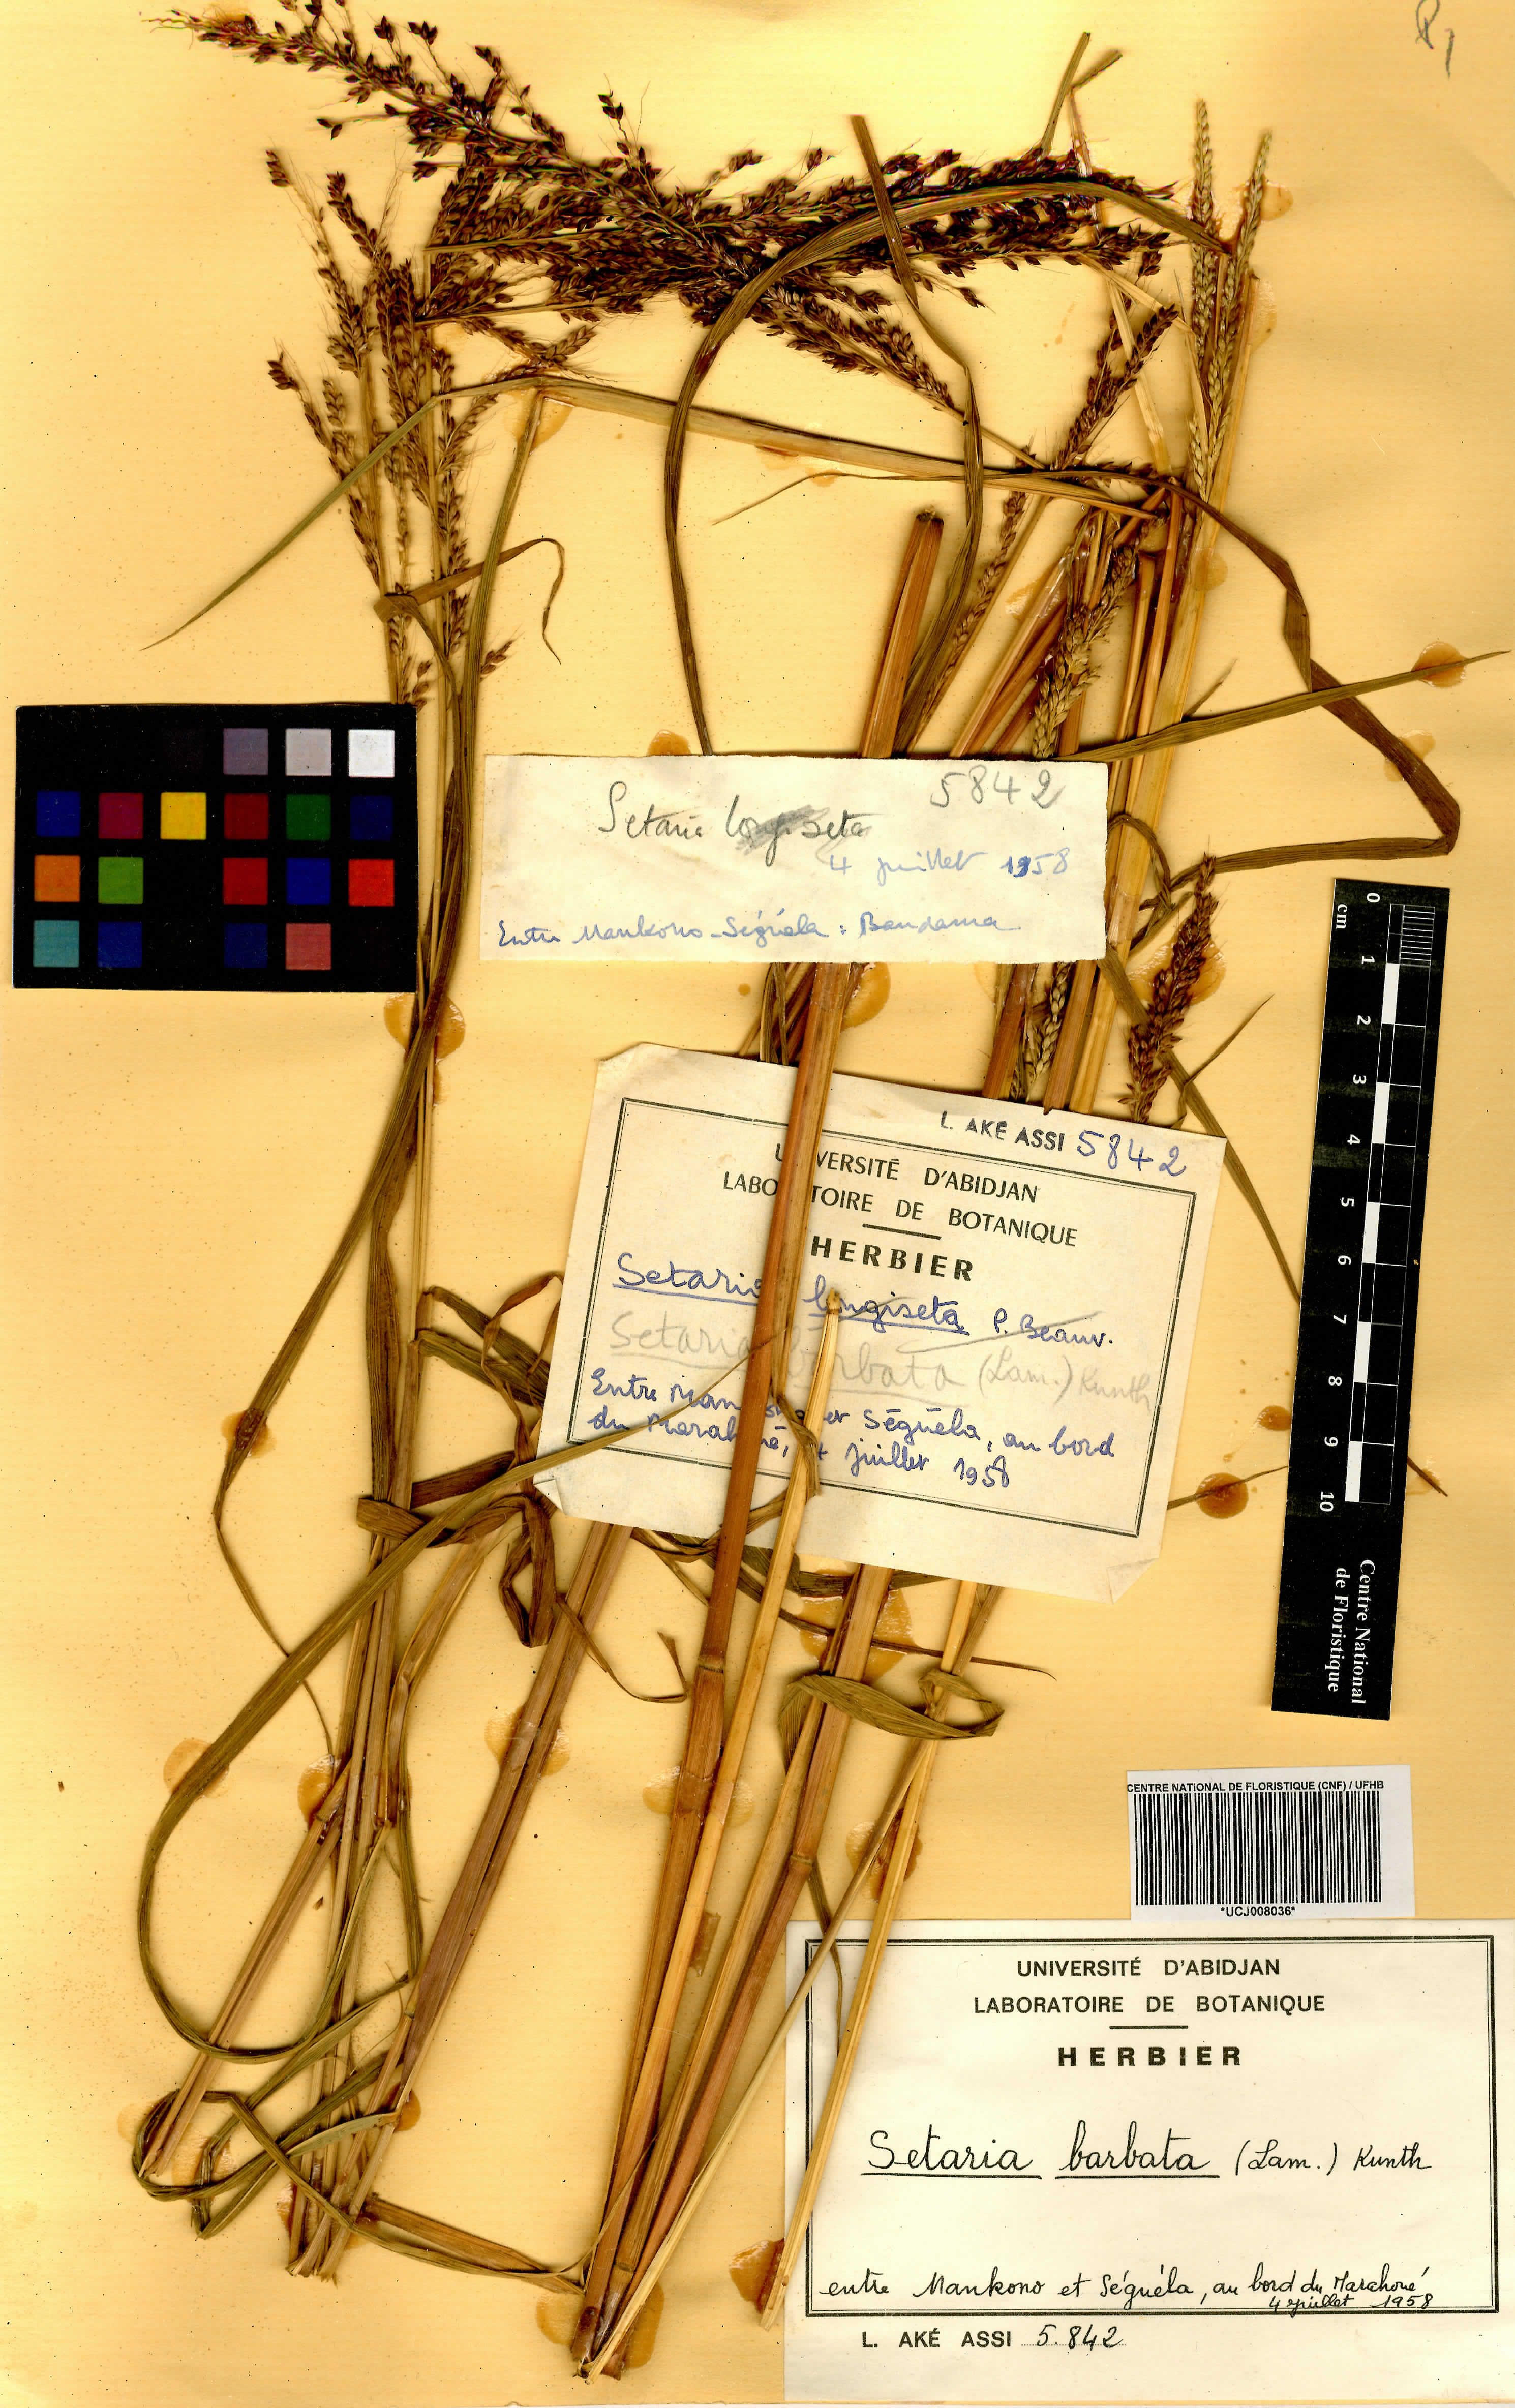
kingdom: Plantae
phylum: Tracheophyta
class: Liliopsida
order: Poales
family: Poaceae
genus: Setaria
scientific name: Setaria barbata
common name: East indian bristlegrass
